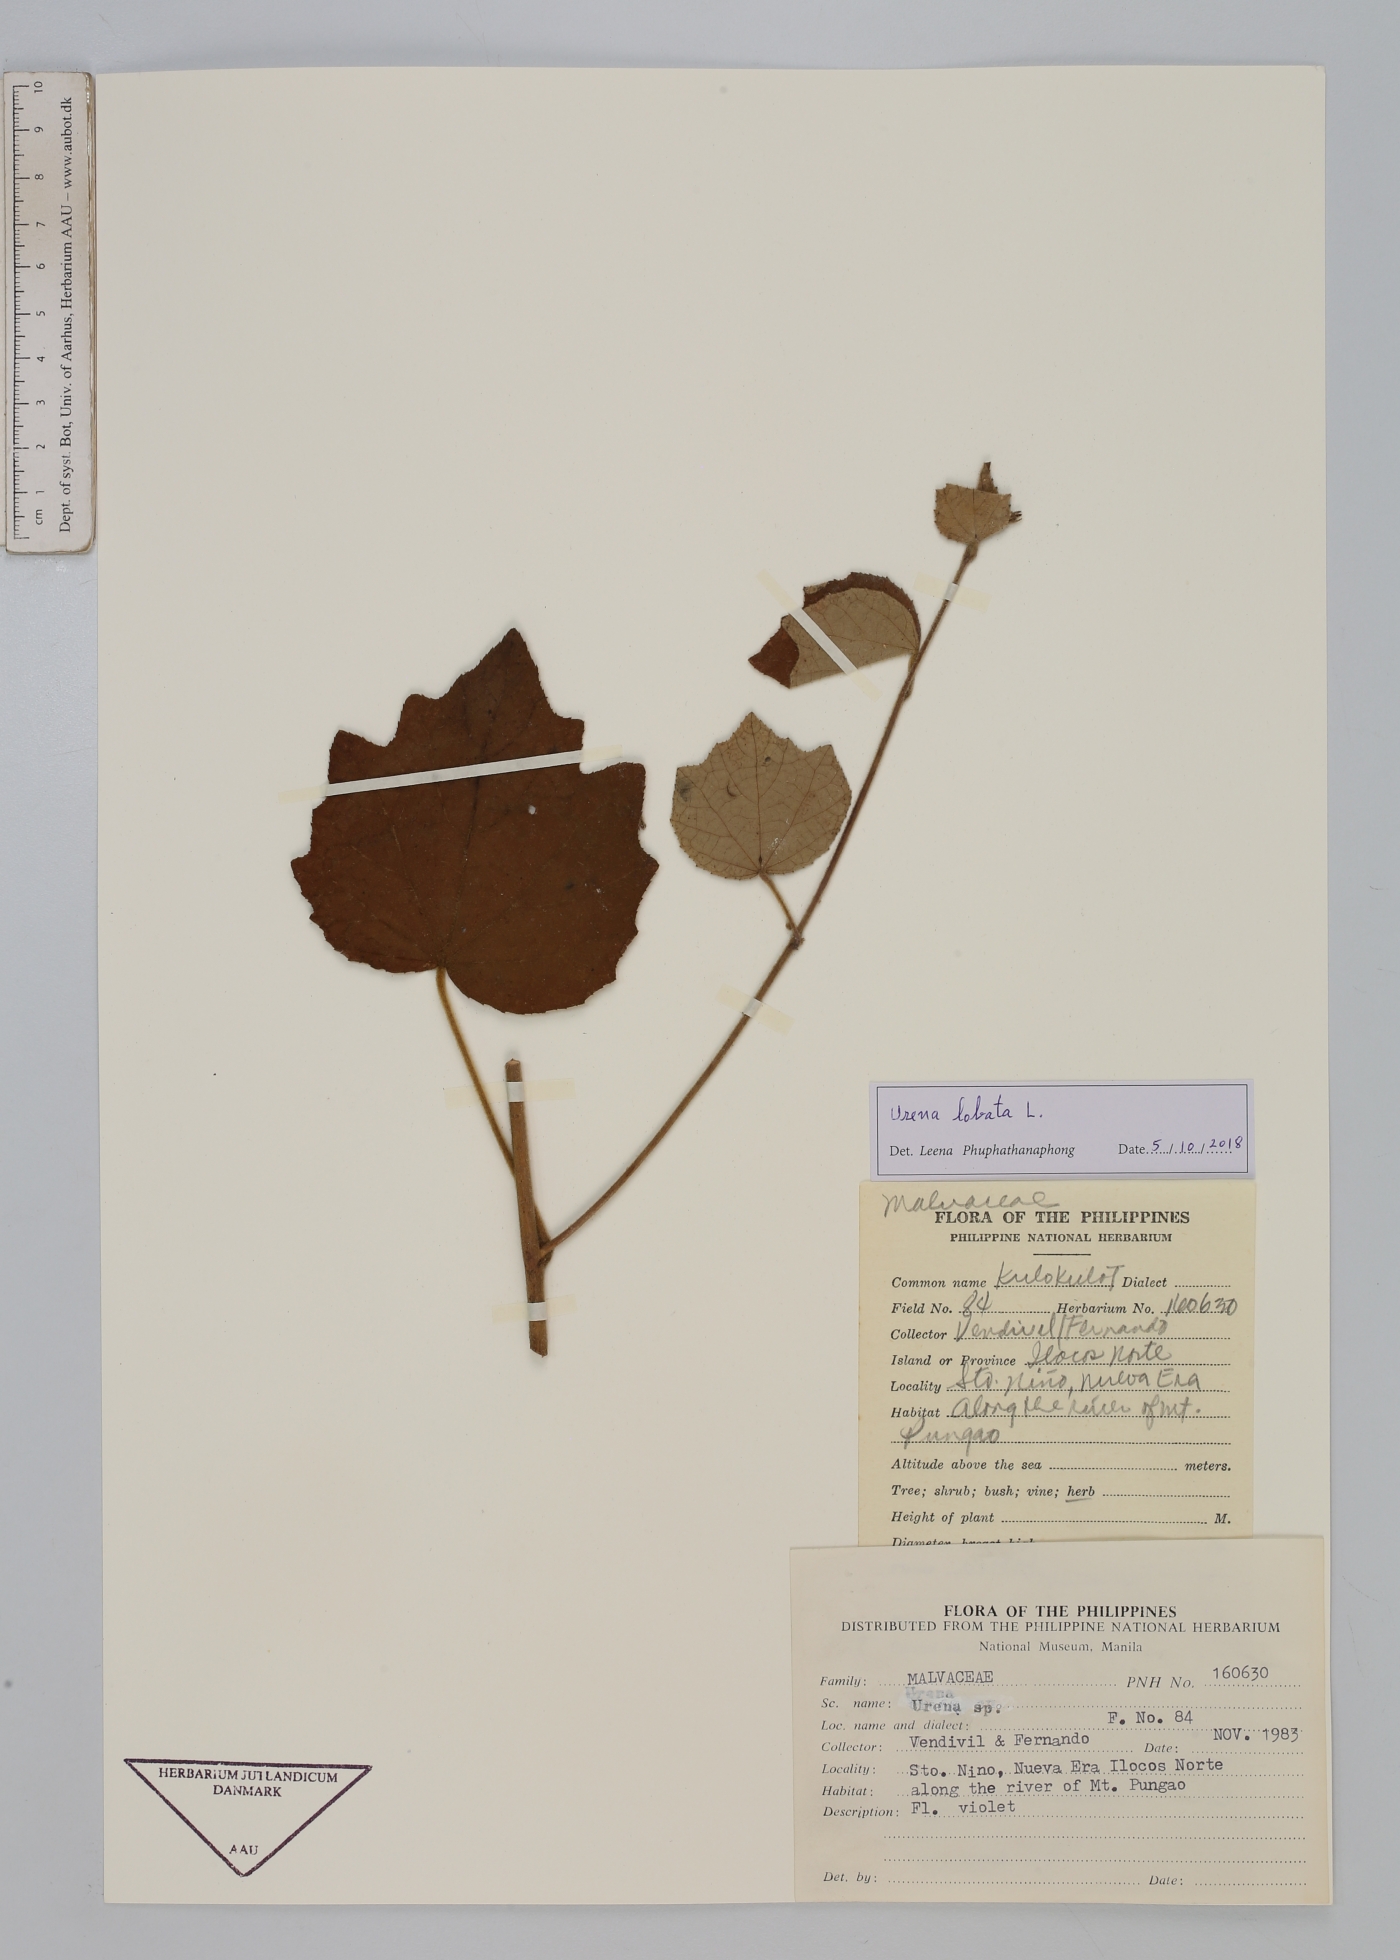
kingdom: Plantae
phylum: Tracheophyta
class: Magnoliopsida
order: Malvales
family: Malvaceae
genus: Urena
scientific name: Urena lobata
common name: Caesarweed
